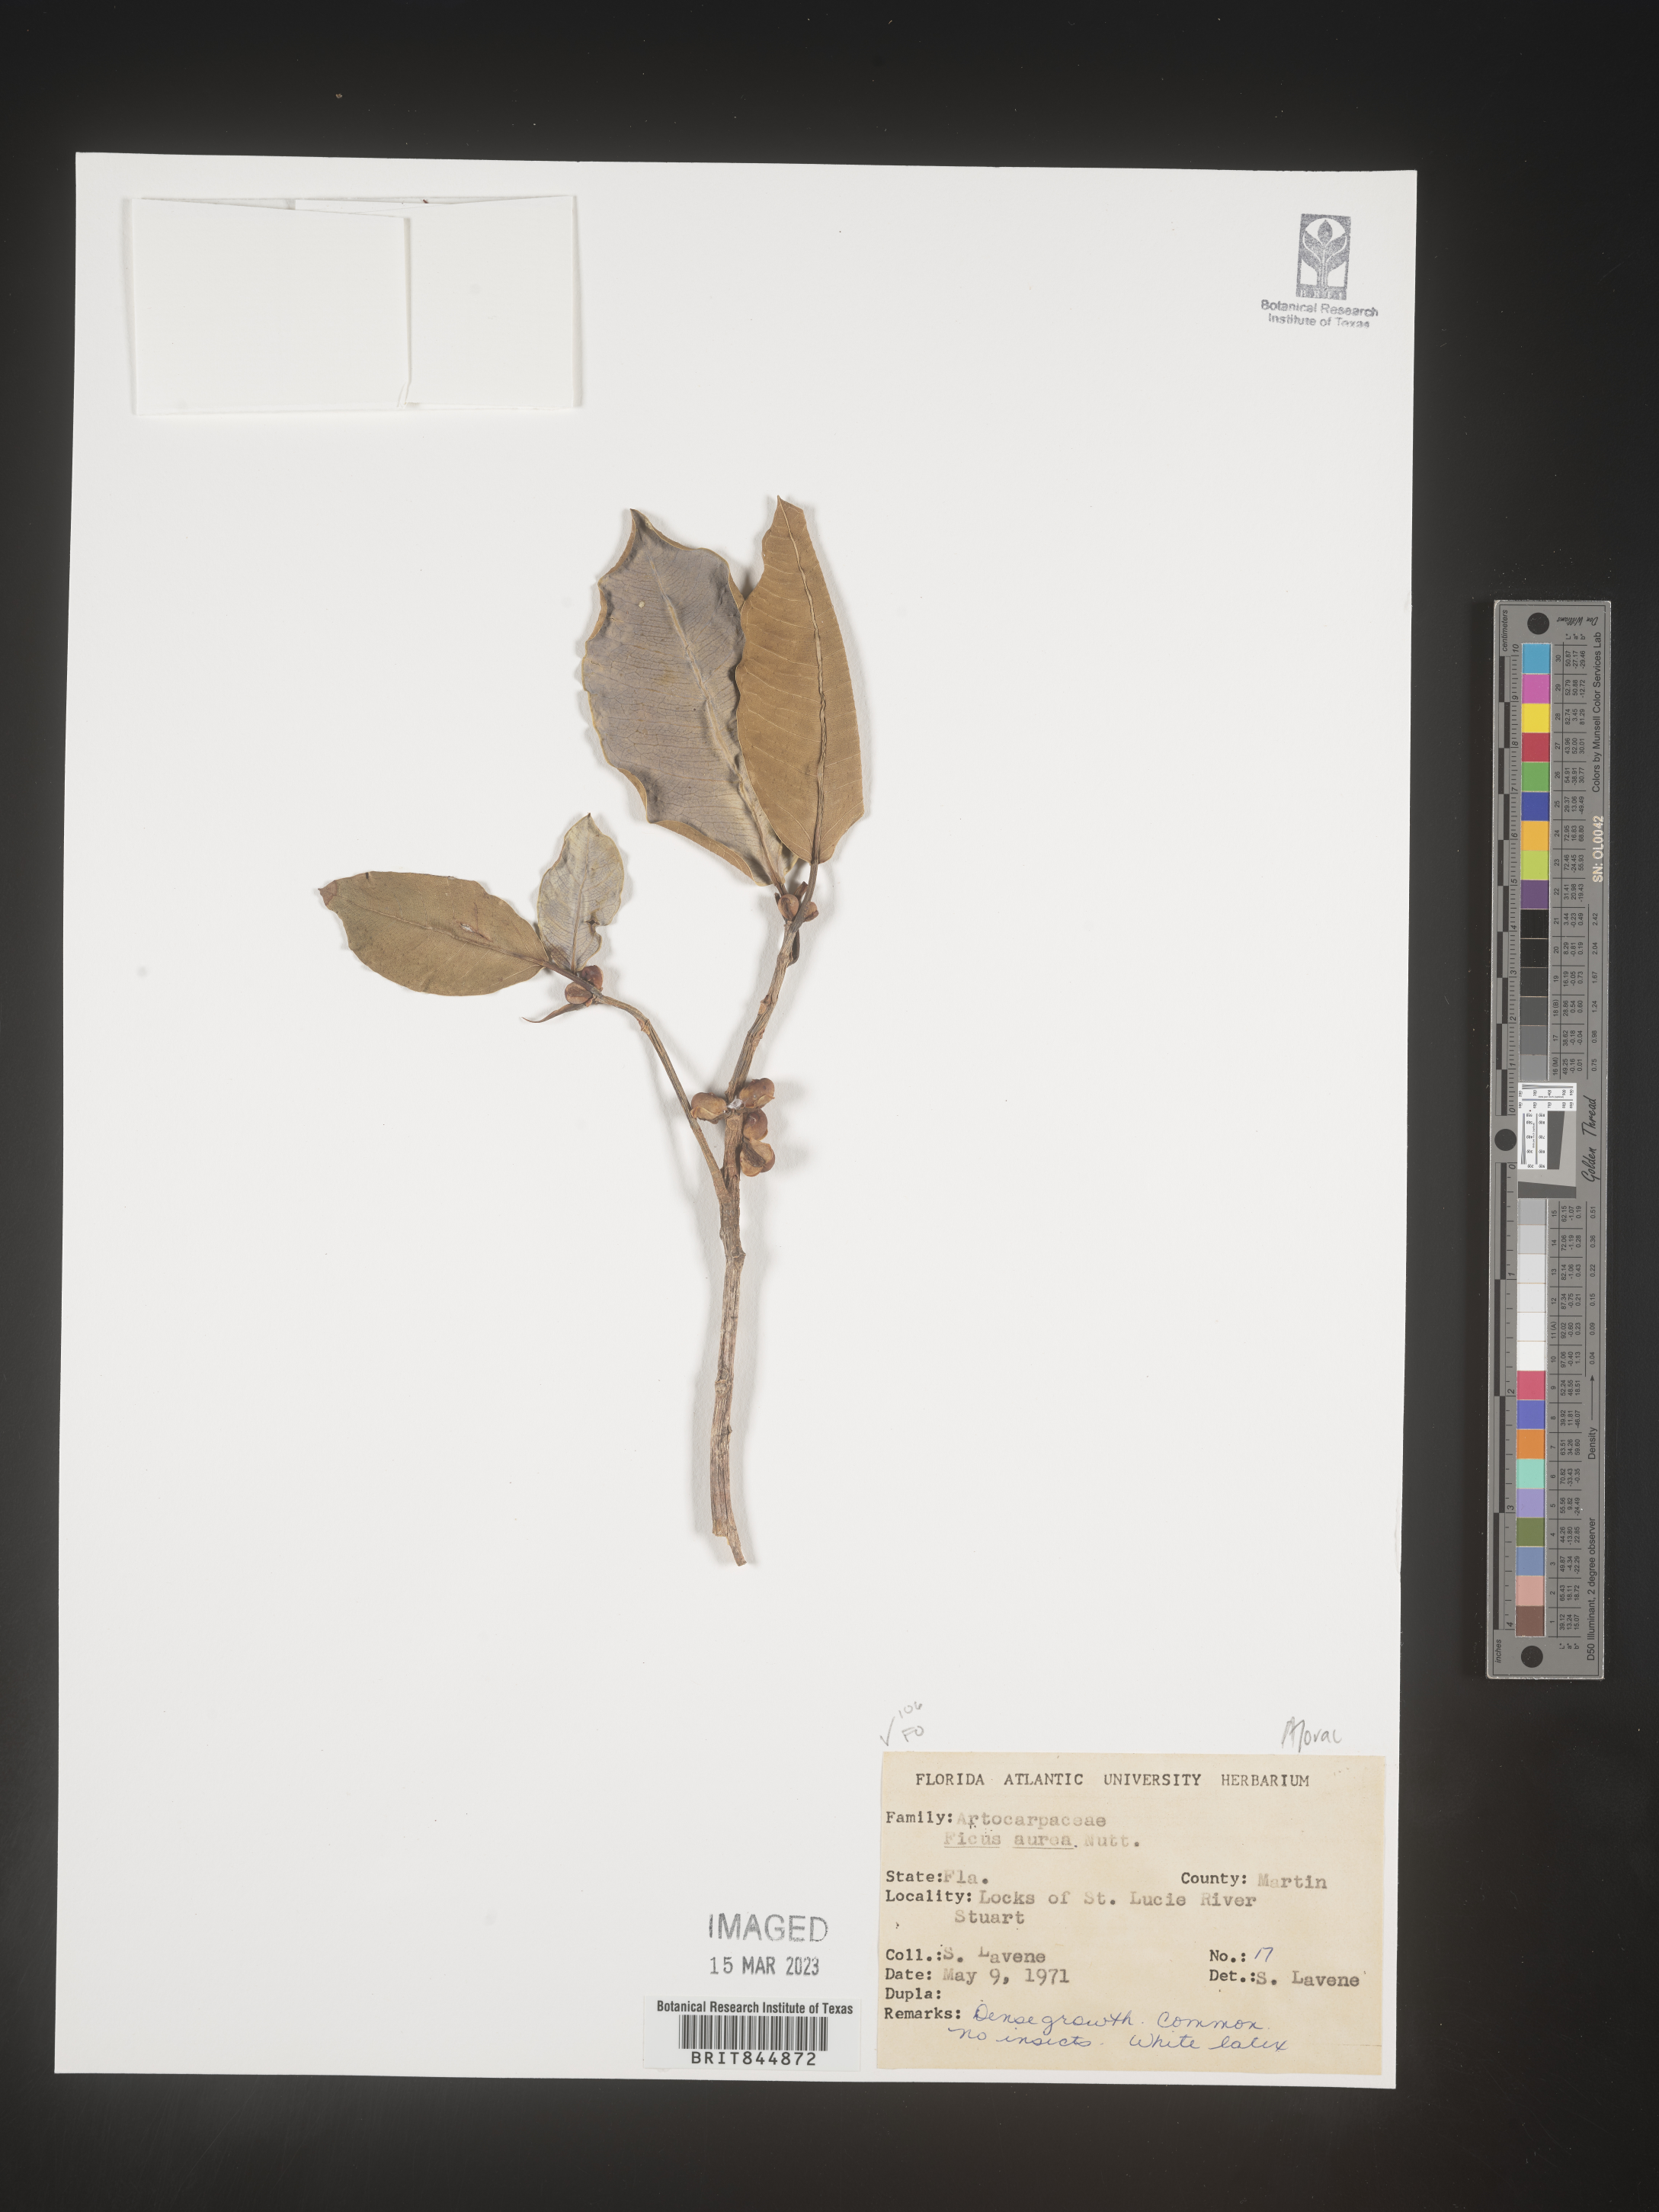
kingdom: Plantae
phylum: Tracheophyta
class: Magnoliopsida
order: Rosales
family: Moraceae
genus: Ficus
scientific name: Ficus
